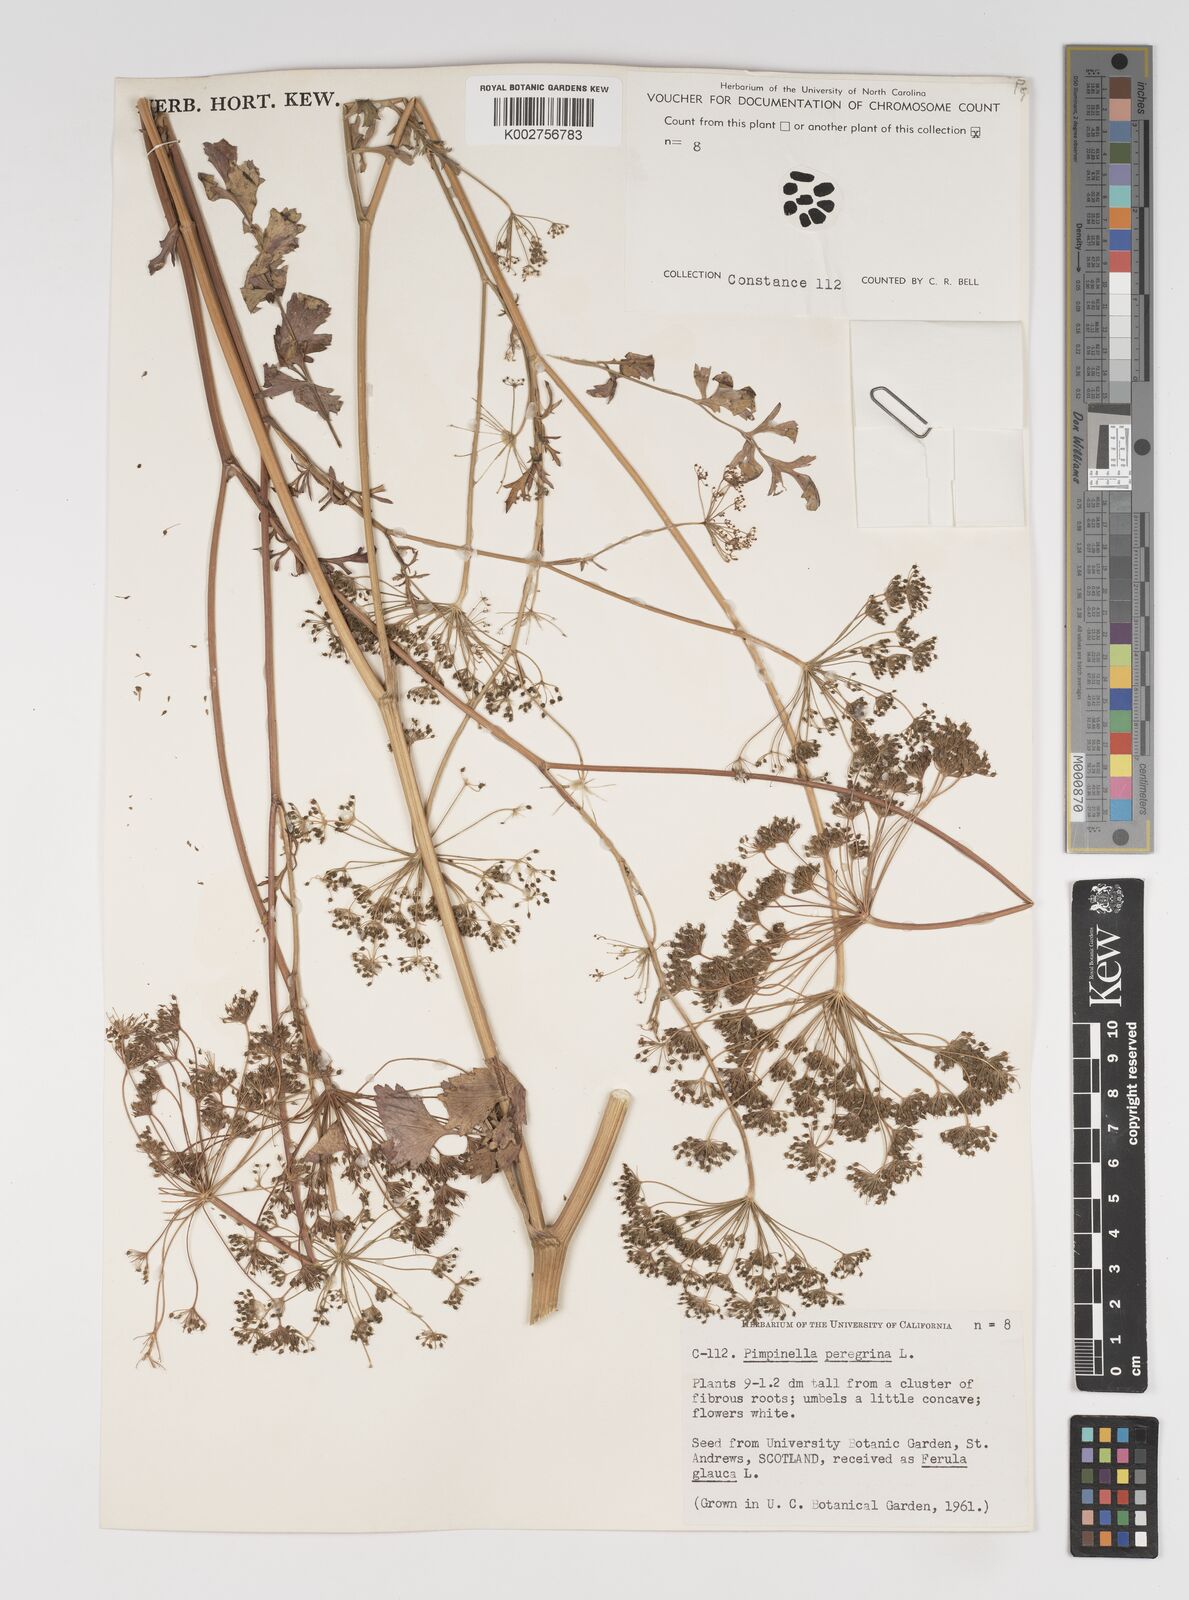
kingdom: Plantae
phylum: Tracheophyta
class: Magnoliopsida
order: Apiales
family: Apiaceae
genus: Pimpinella
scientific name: Pimpinella peregrina
